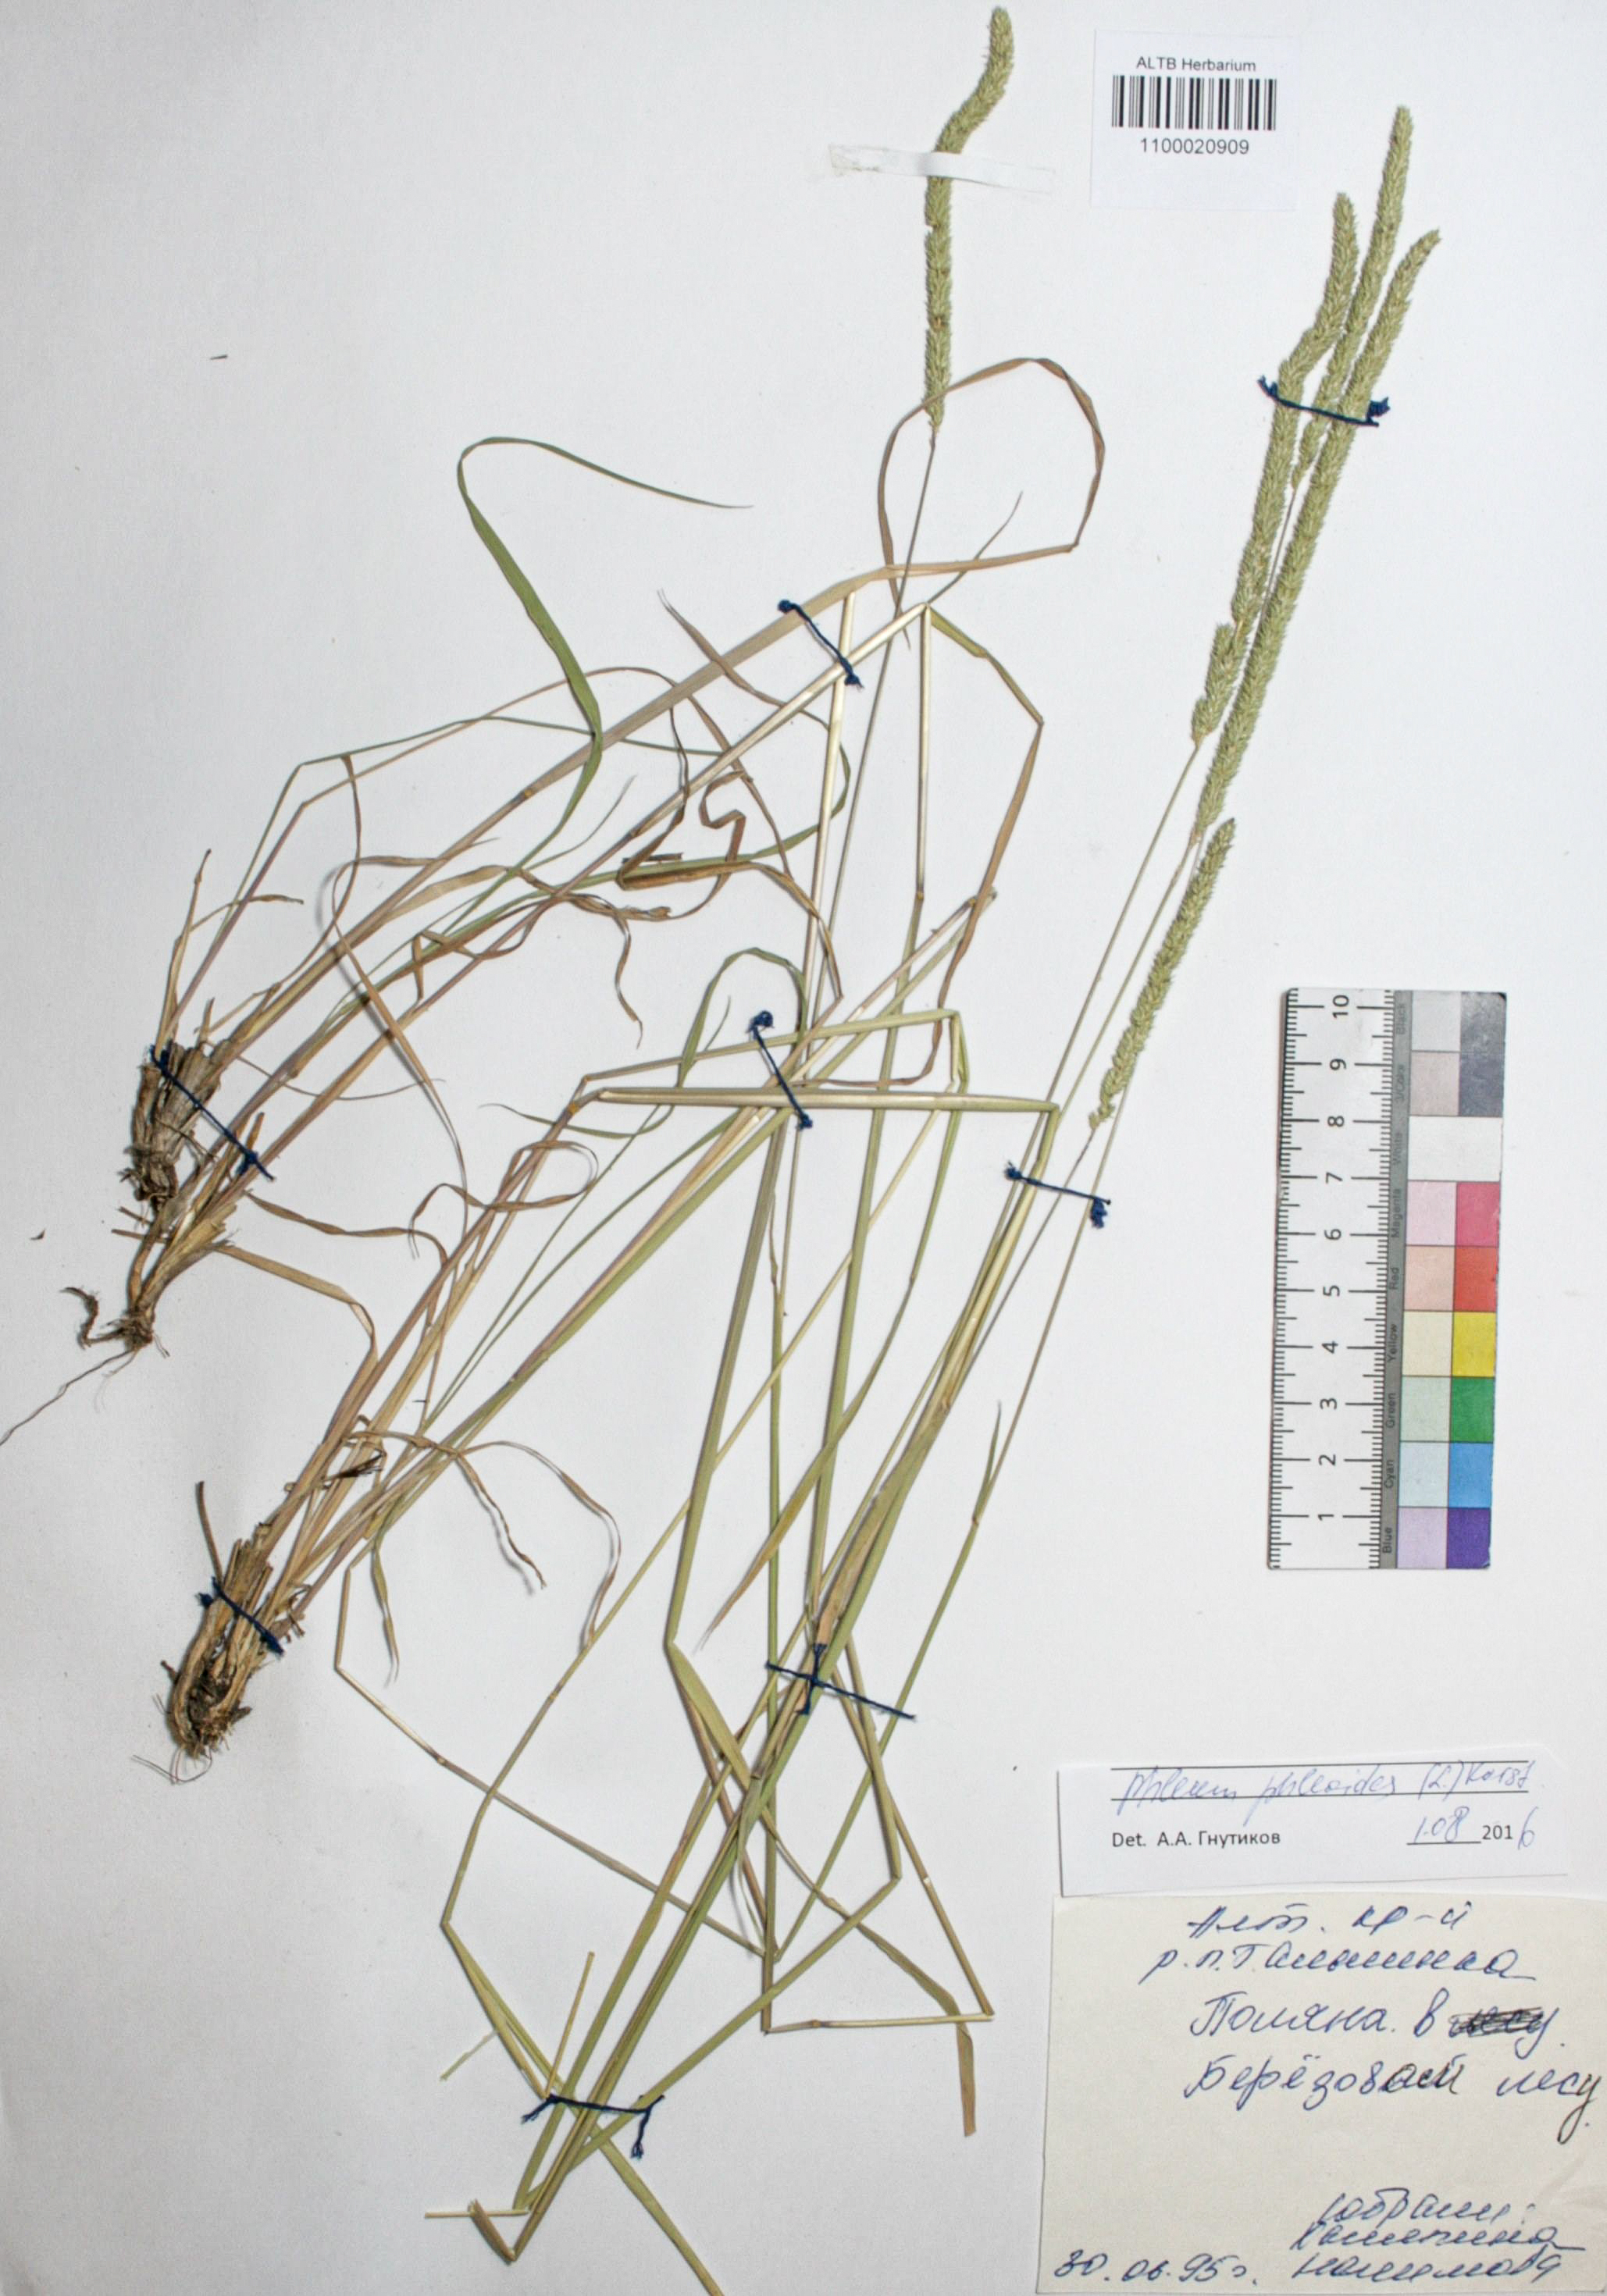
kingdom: Plantae
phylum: Tracheophyta
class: Liliopsida
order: Poales
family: Poaceae
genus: Phleum
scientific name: Phleum phleoides
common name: Purple-stem cat's-tail
